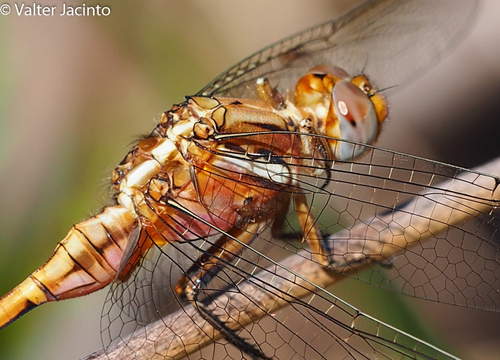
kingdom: Animalia
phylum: Arthropoda
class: Insecta
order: Odonata
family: Libellulidae
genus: Orthetrum
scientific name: Orthetrum chrysostigma
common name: Epaulet skimmer
